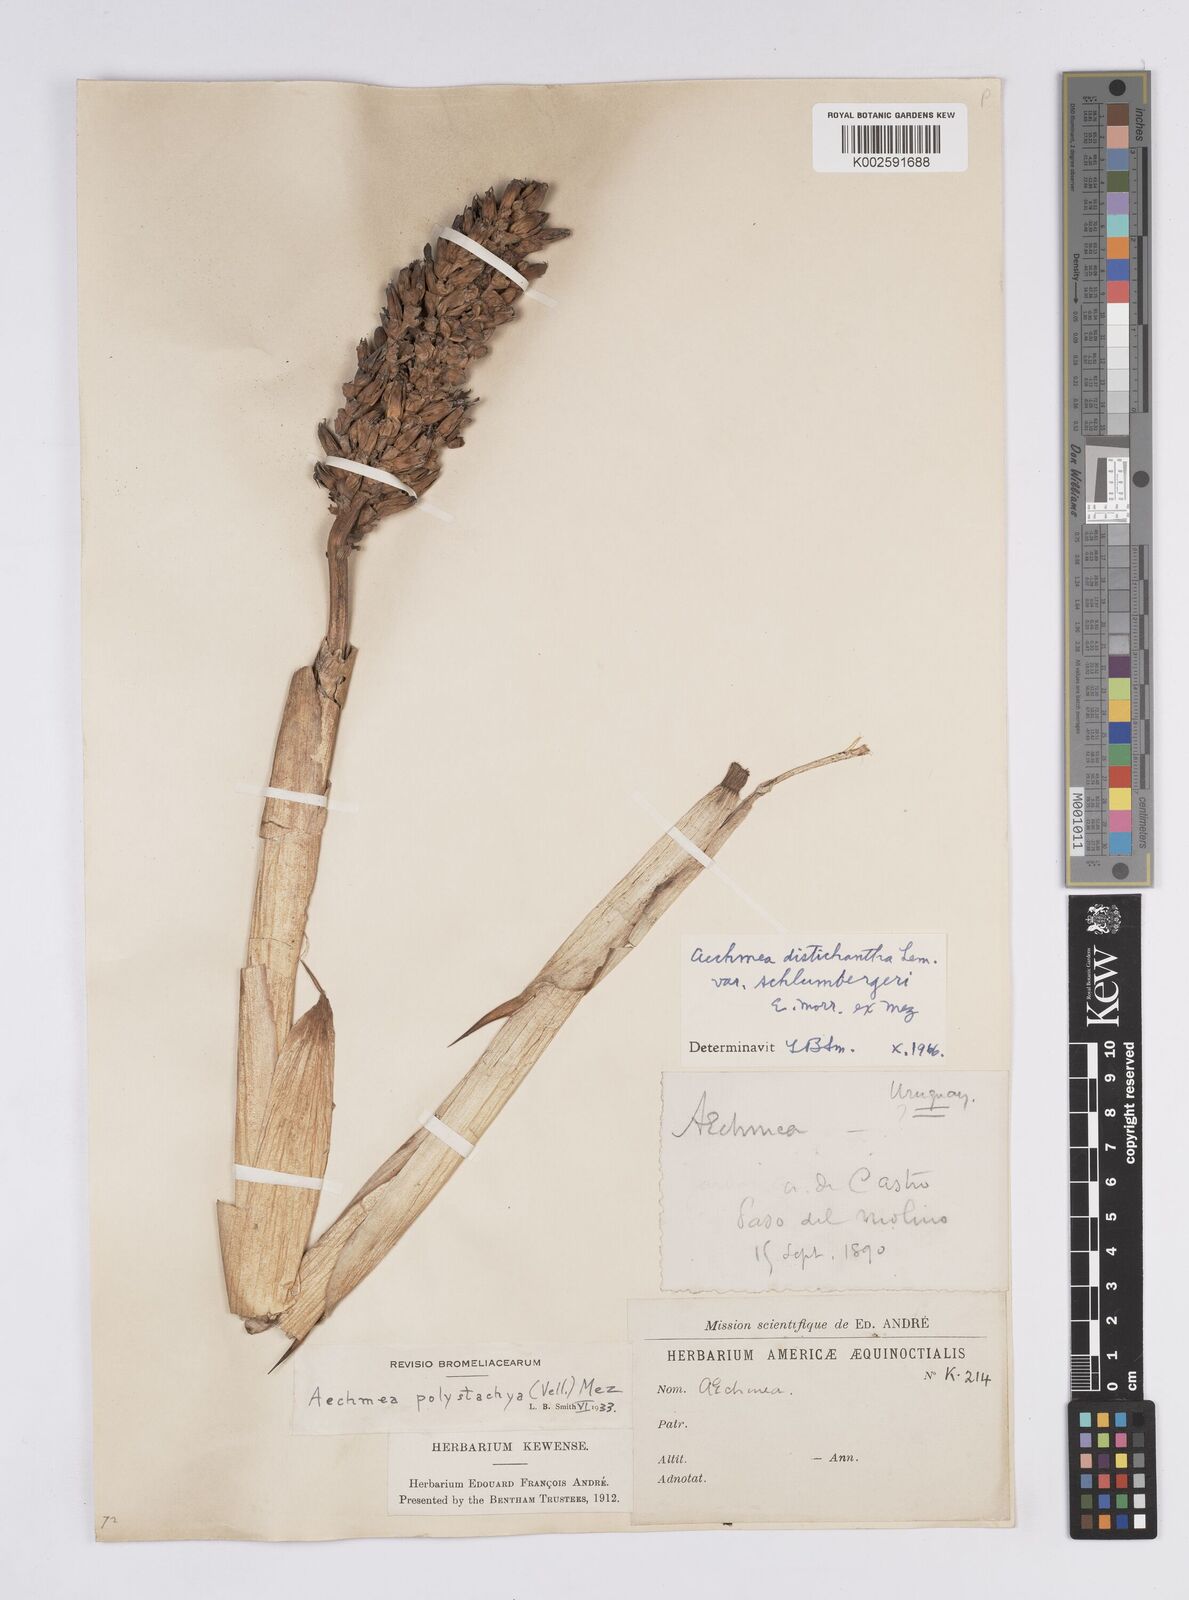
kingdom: Plantae
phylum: Tracheophyta
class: Liliopsida
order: Poales
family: Bromeliaceae
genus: Aechmea
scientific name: Aechmea distichantha
